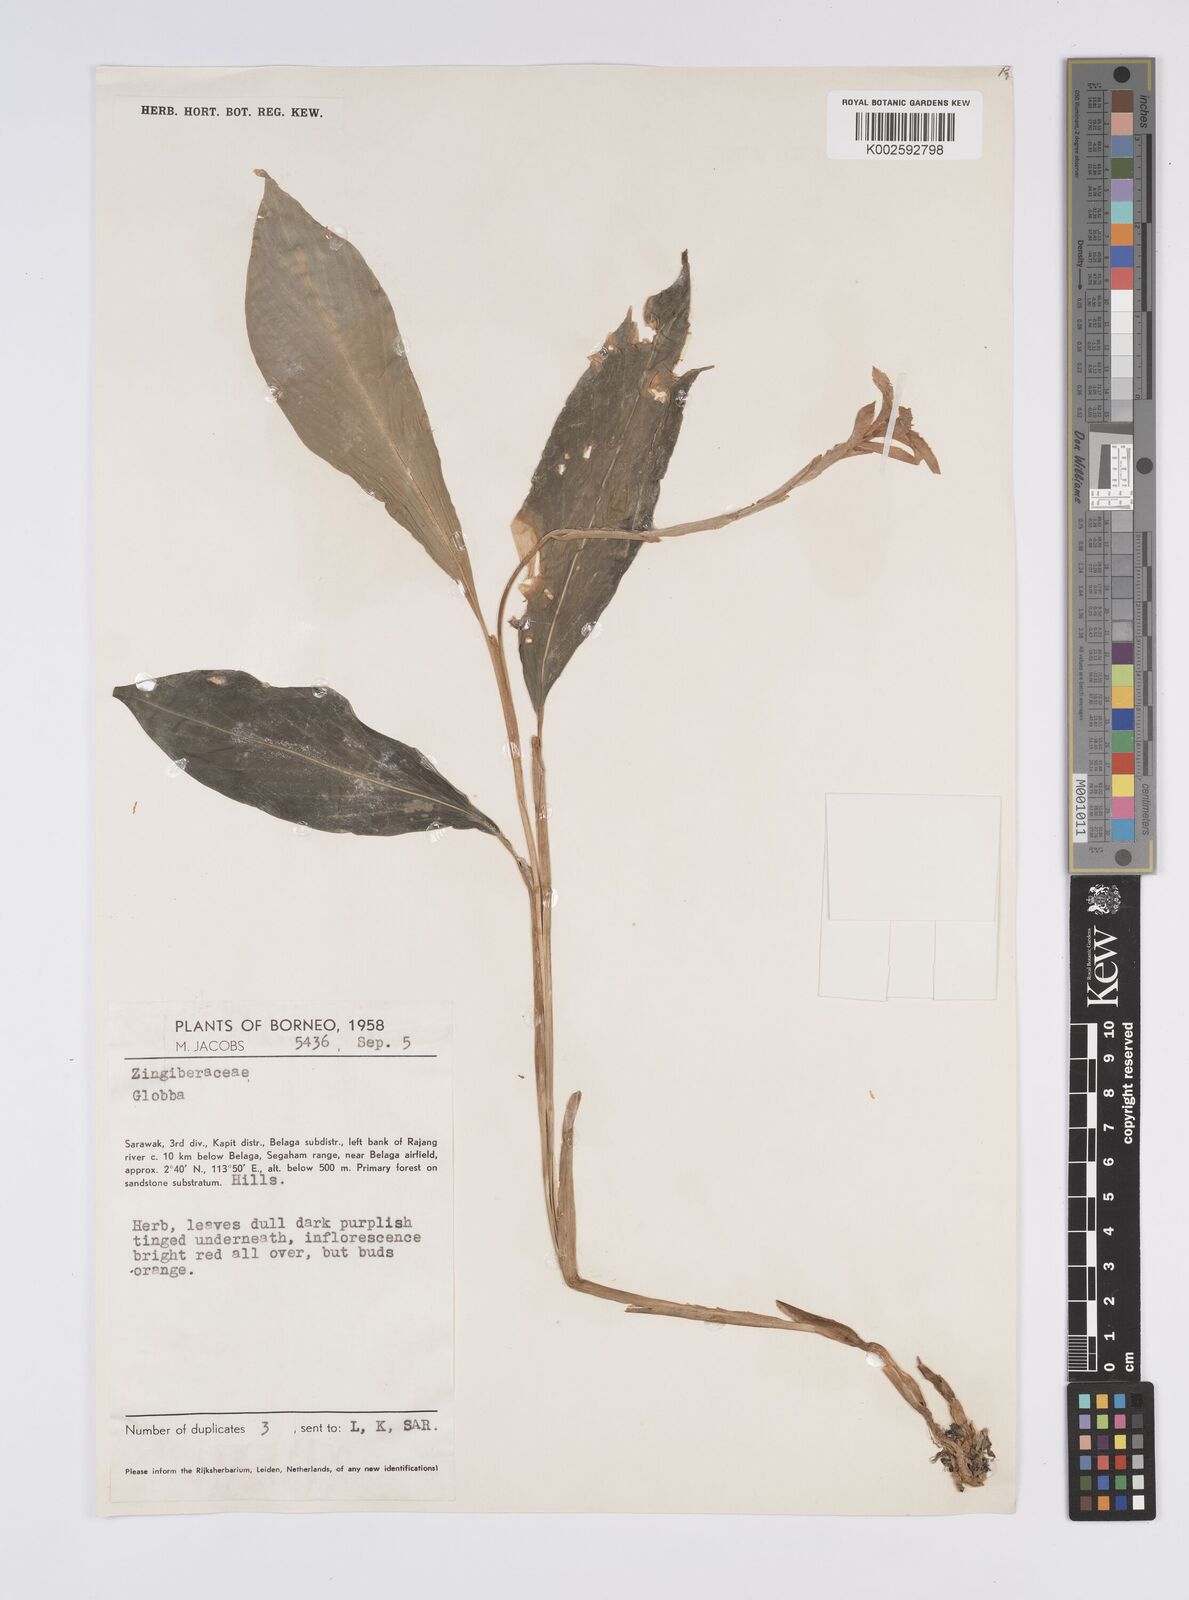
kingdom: Plantae
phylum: Tracheophyta
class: Liliopsida
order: Zingiberales
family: Zingiberaceae
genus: Globba
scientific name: Globba atrosanguinea
